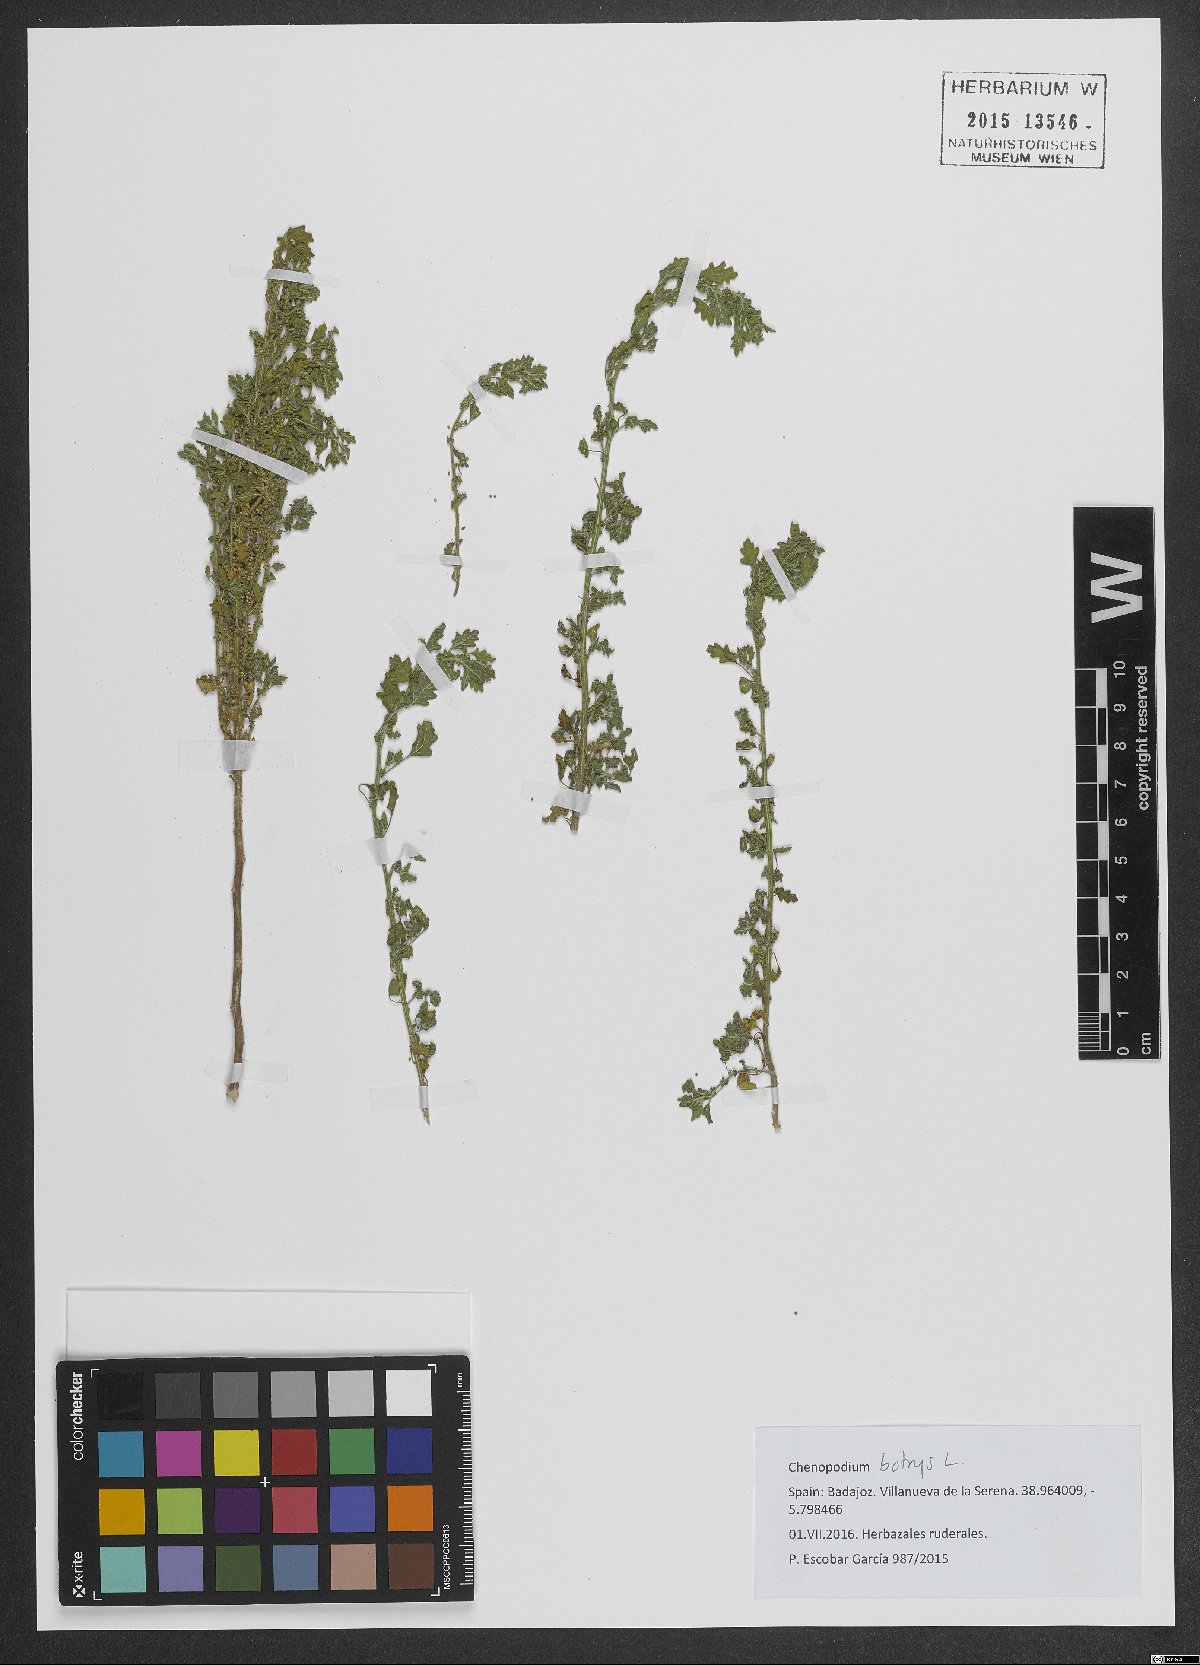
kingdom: Plantae
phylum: Tracheophyta
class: Magnoliopsida
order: Caryophyllales
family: Amaranthaceae
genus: Dysphania
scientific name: Dysphania botrys
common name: Feather-geranium
